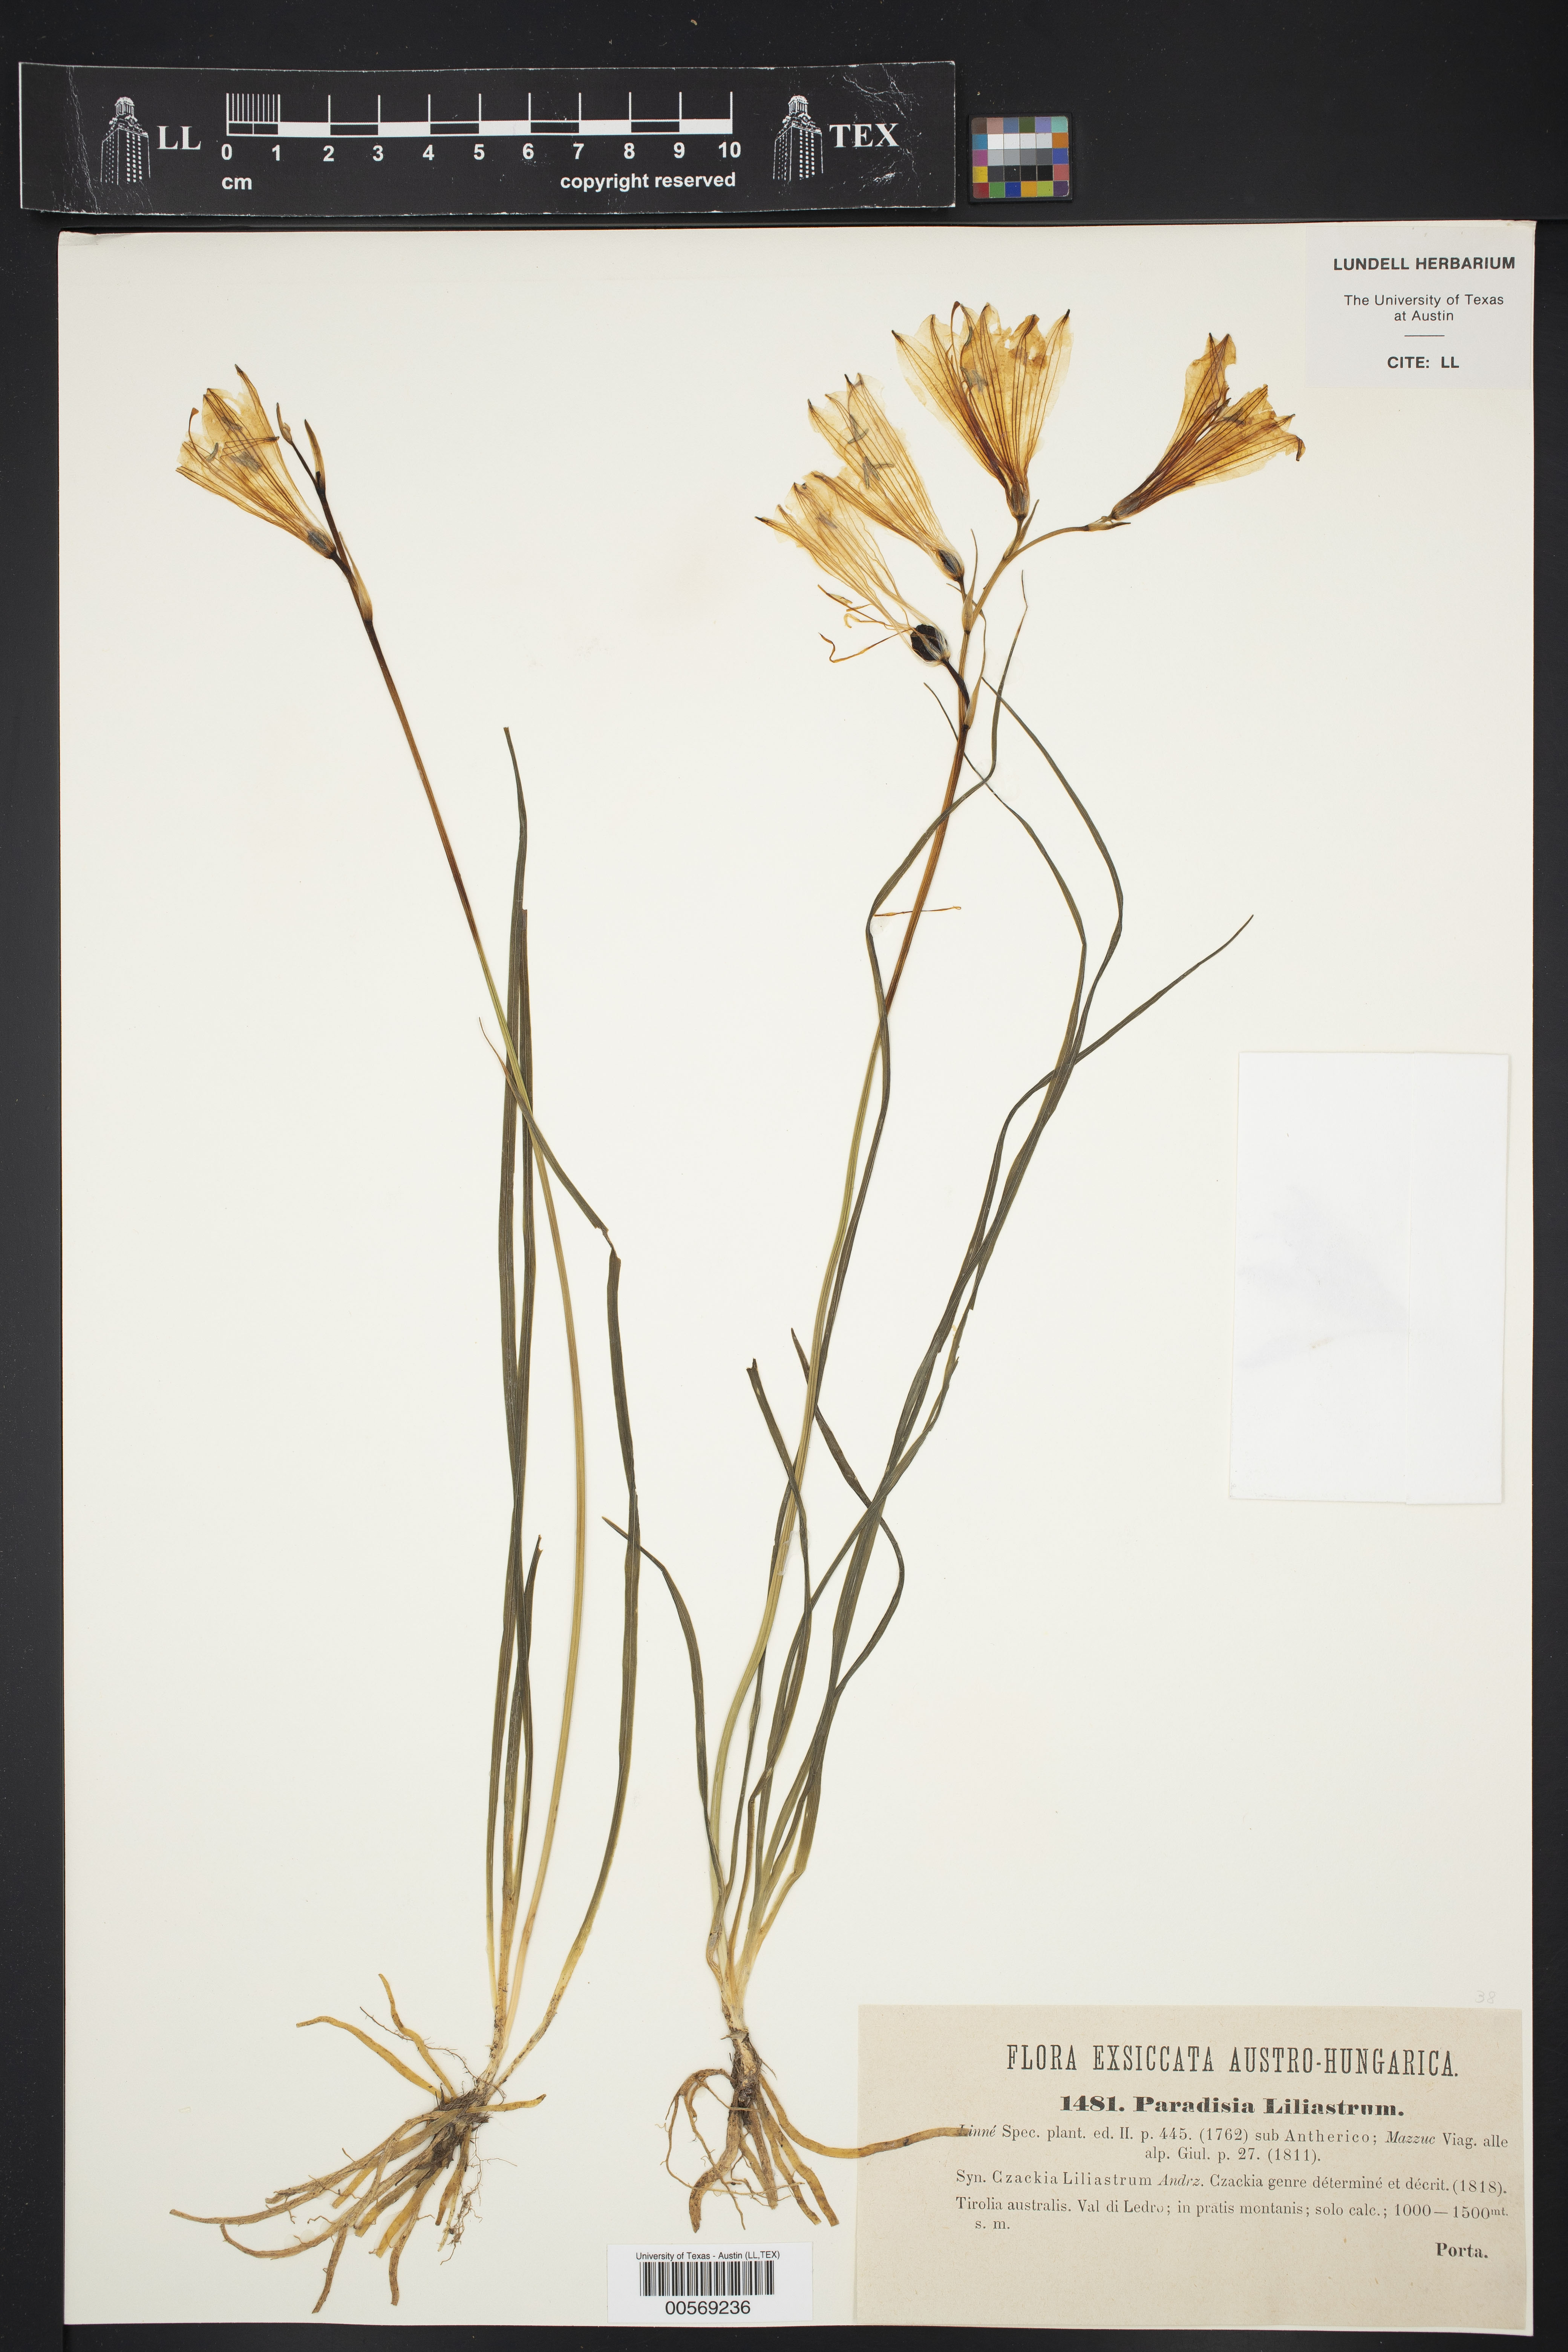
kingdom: Plantae
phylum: Tracheophyta
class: Liliopsida
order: Asparagales
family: Asparagaceae
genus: Paradisea
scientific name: Paradisea liliastrum
